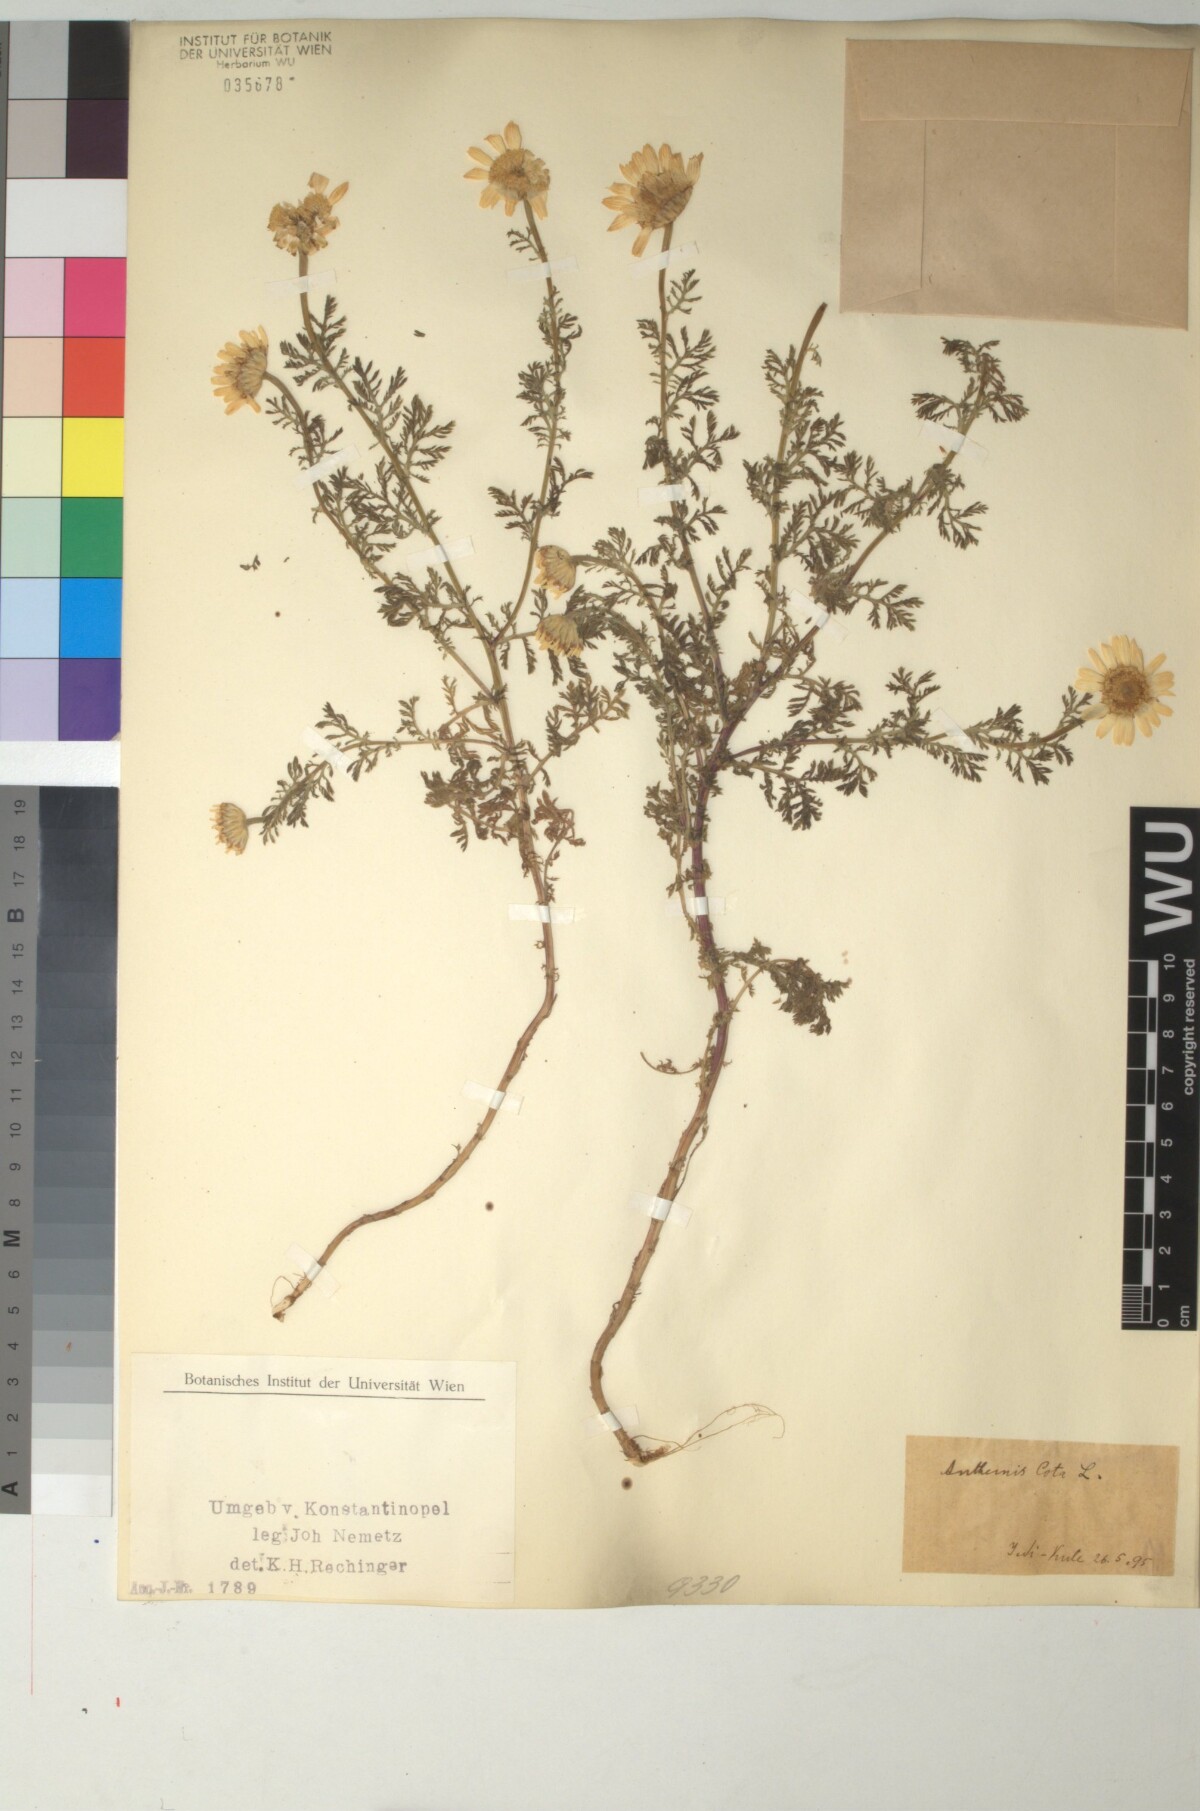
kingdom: Plantae
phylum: Tracheophyta
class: Magnoliopsida
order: Asterales
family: Asteraceae
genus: Cota
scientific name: Cota altissima
